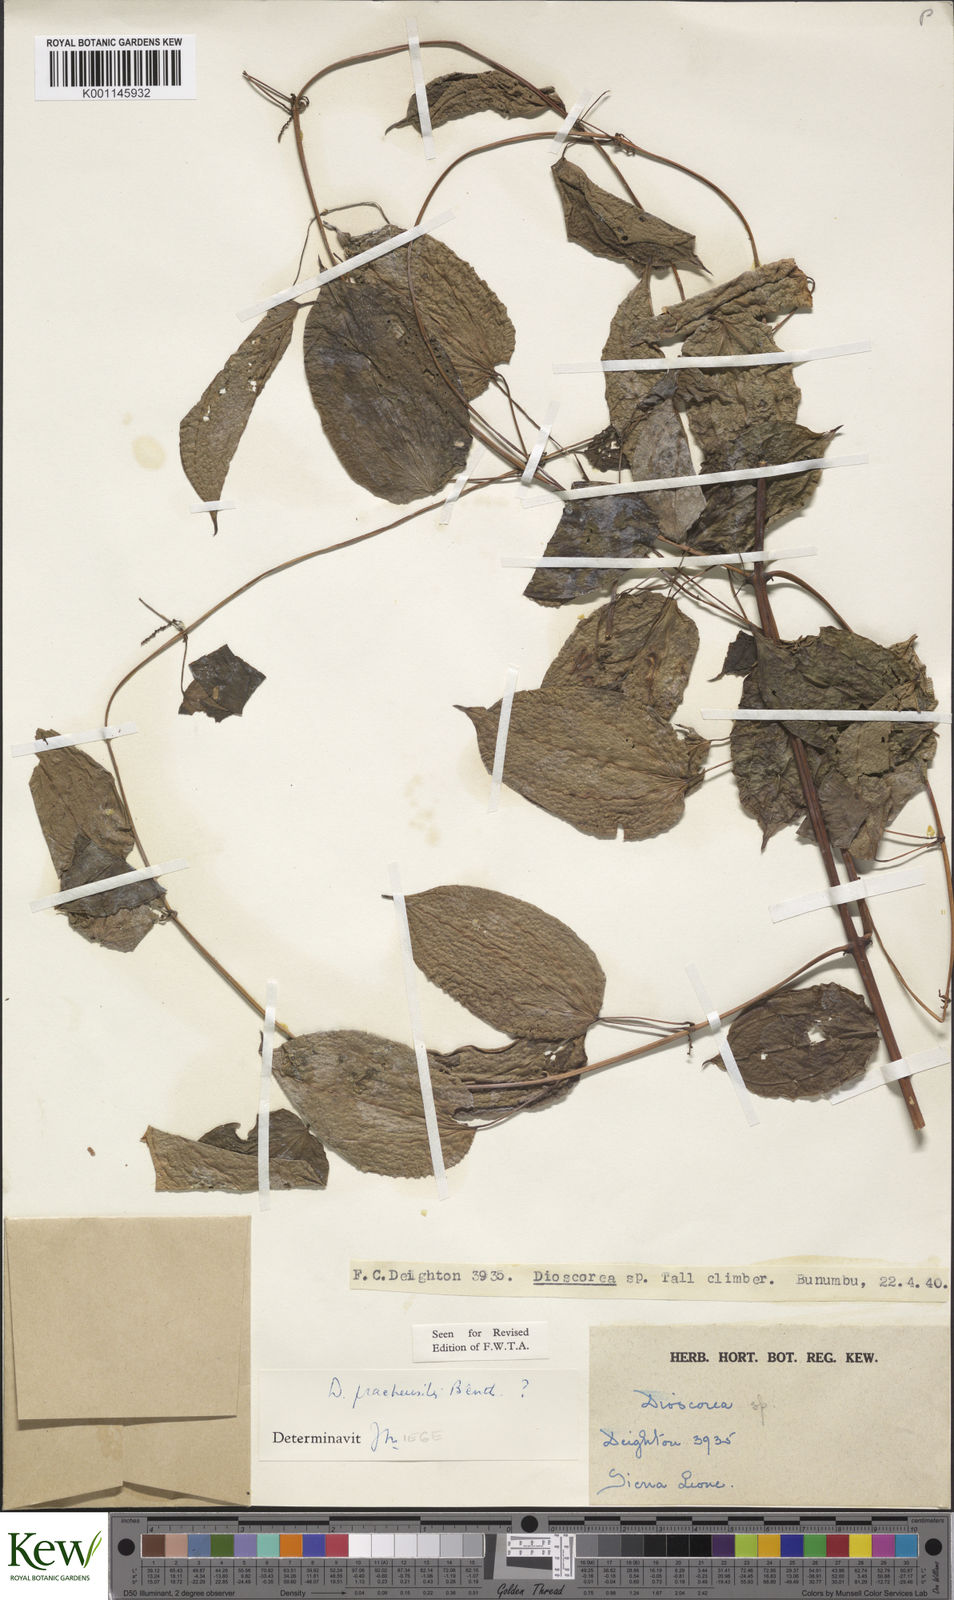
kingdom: Plantae
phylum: Tracheophyta
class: Liliopsida
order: Dioscoreales
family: Dioscoreaceae
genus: Dioscorea
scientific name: Dioscorea praehensilis
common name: Bush yam
